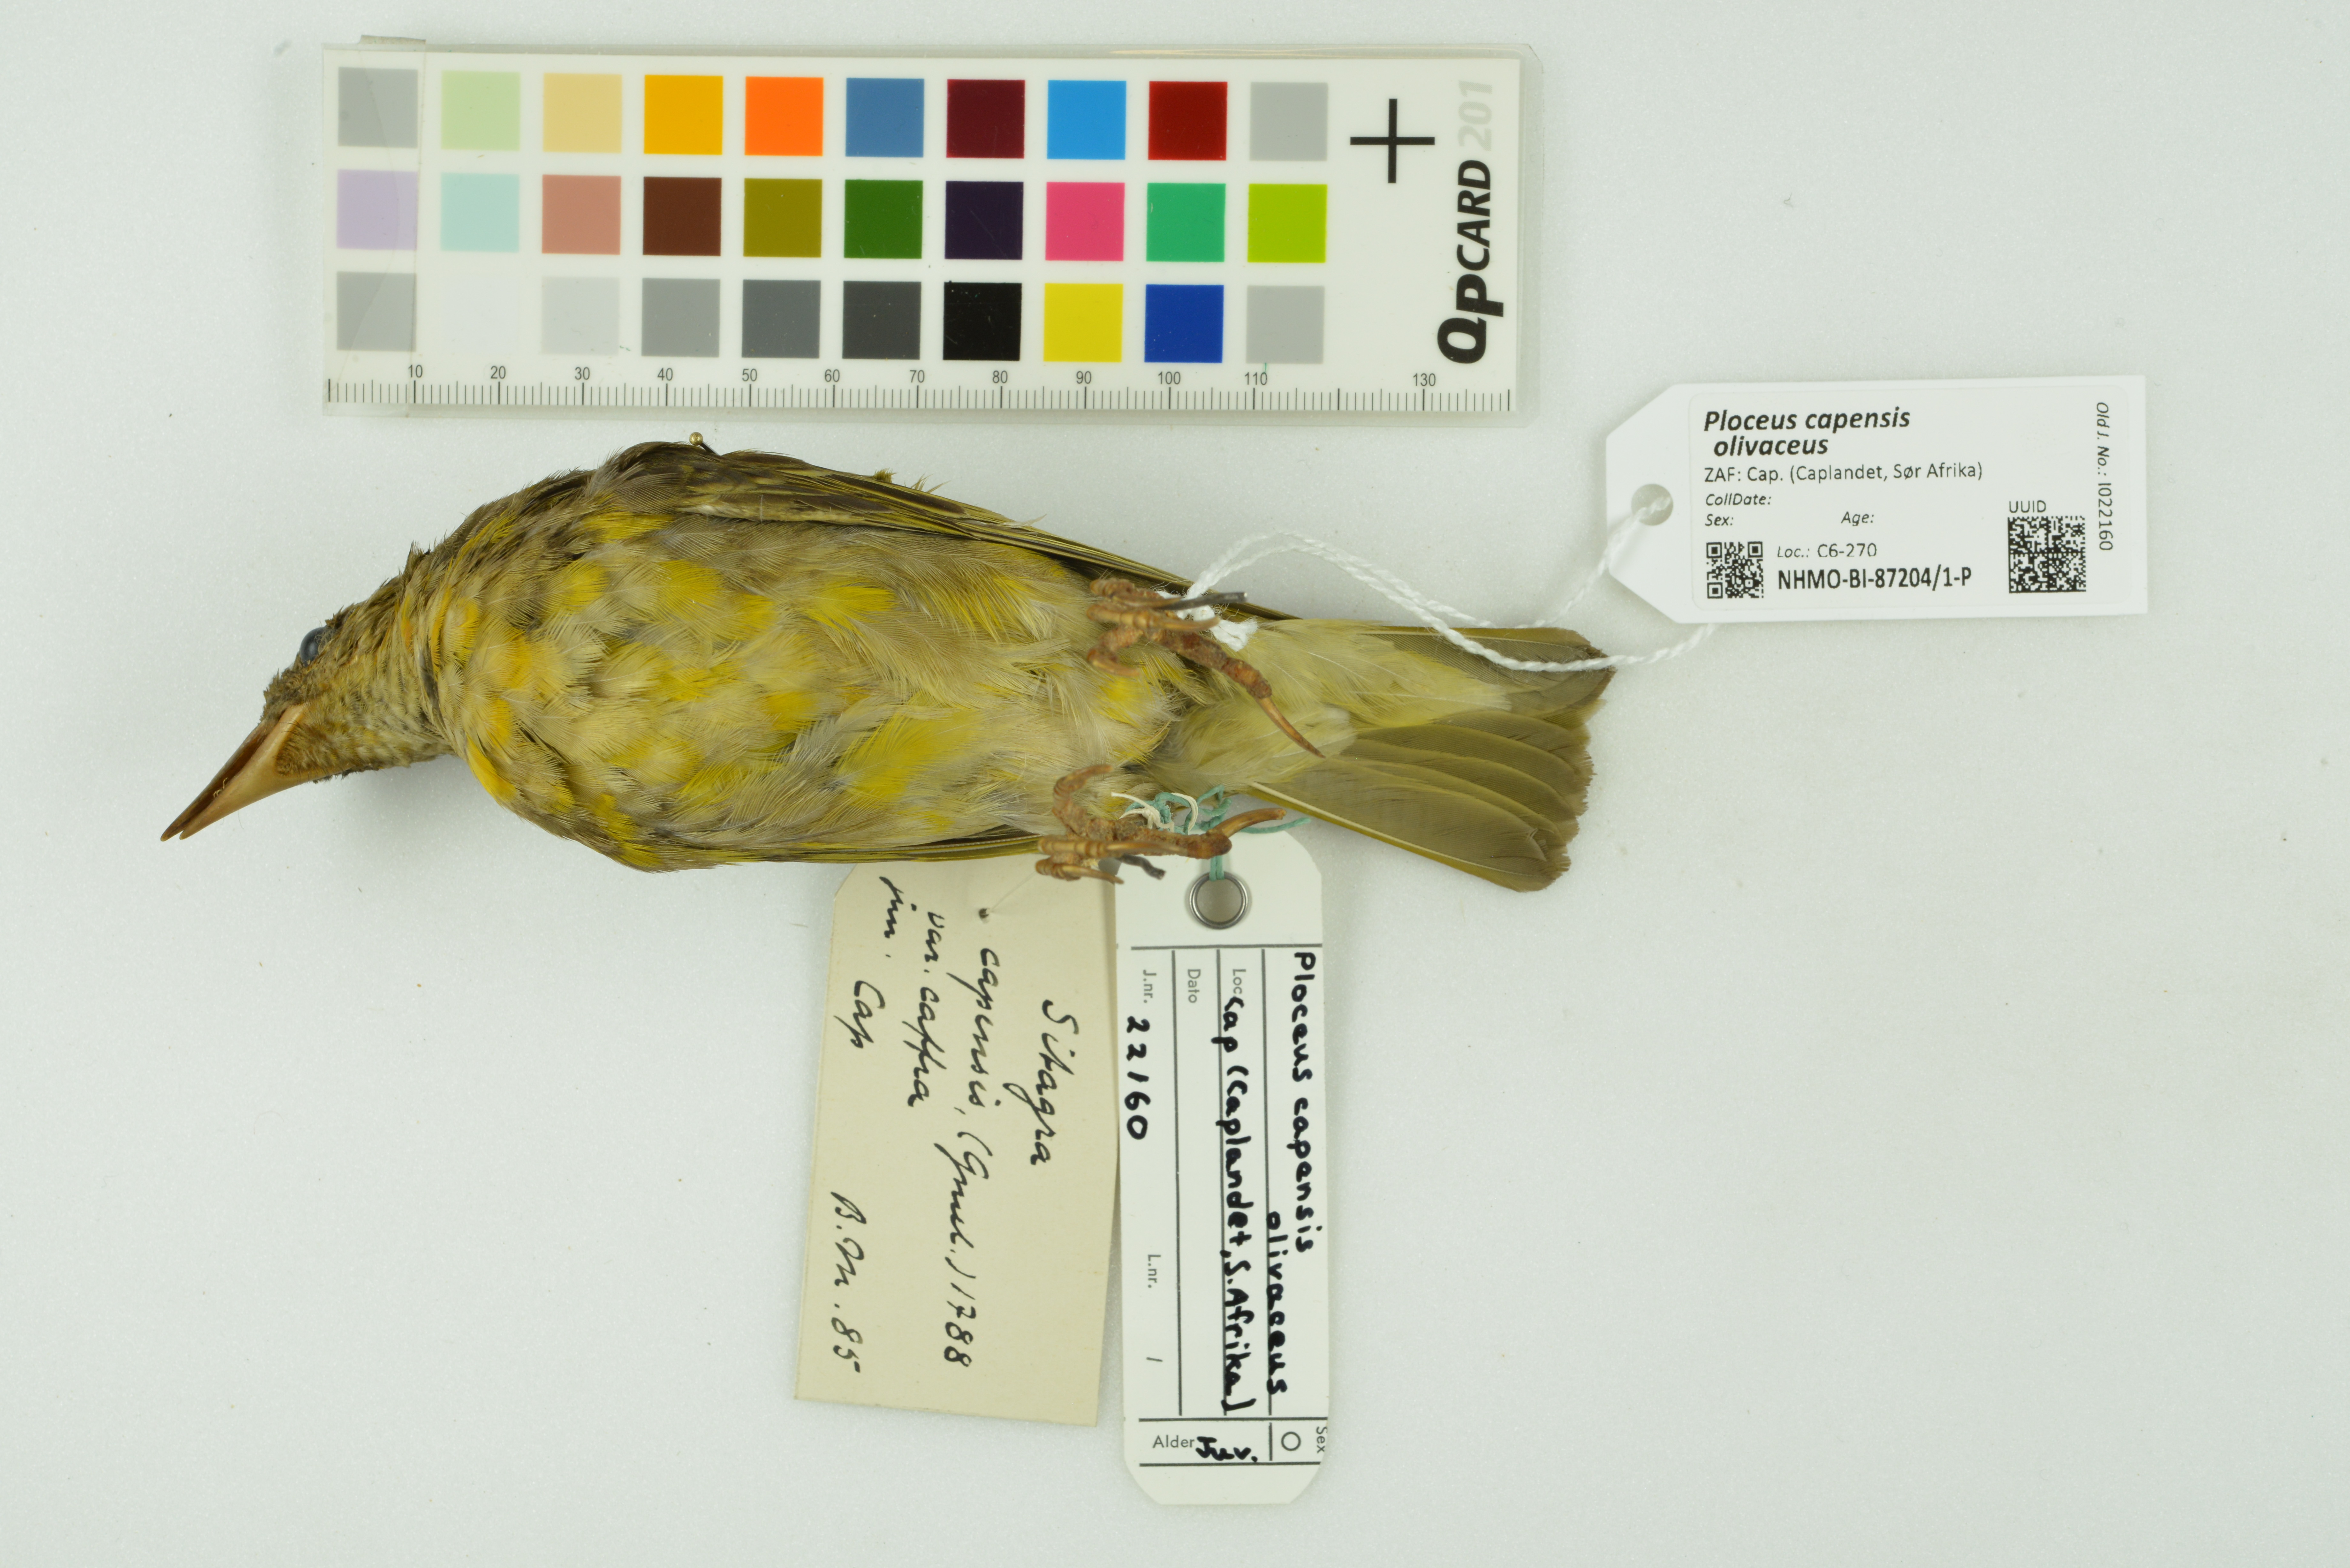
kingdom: Animalia
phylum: Chordata
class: Aves
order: Passeriformes
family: Ploceidae
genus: Ploceus
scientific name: Ploceus capensis
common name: Cape weaver
